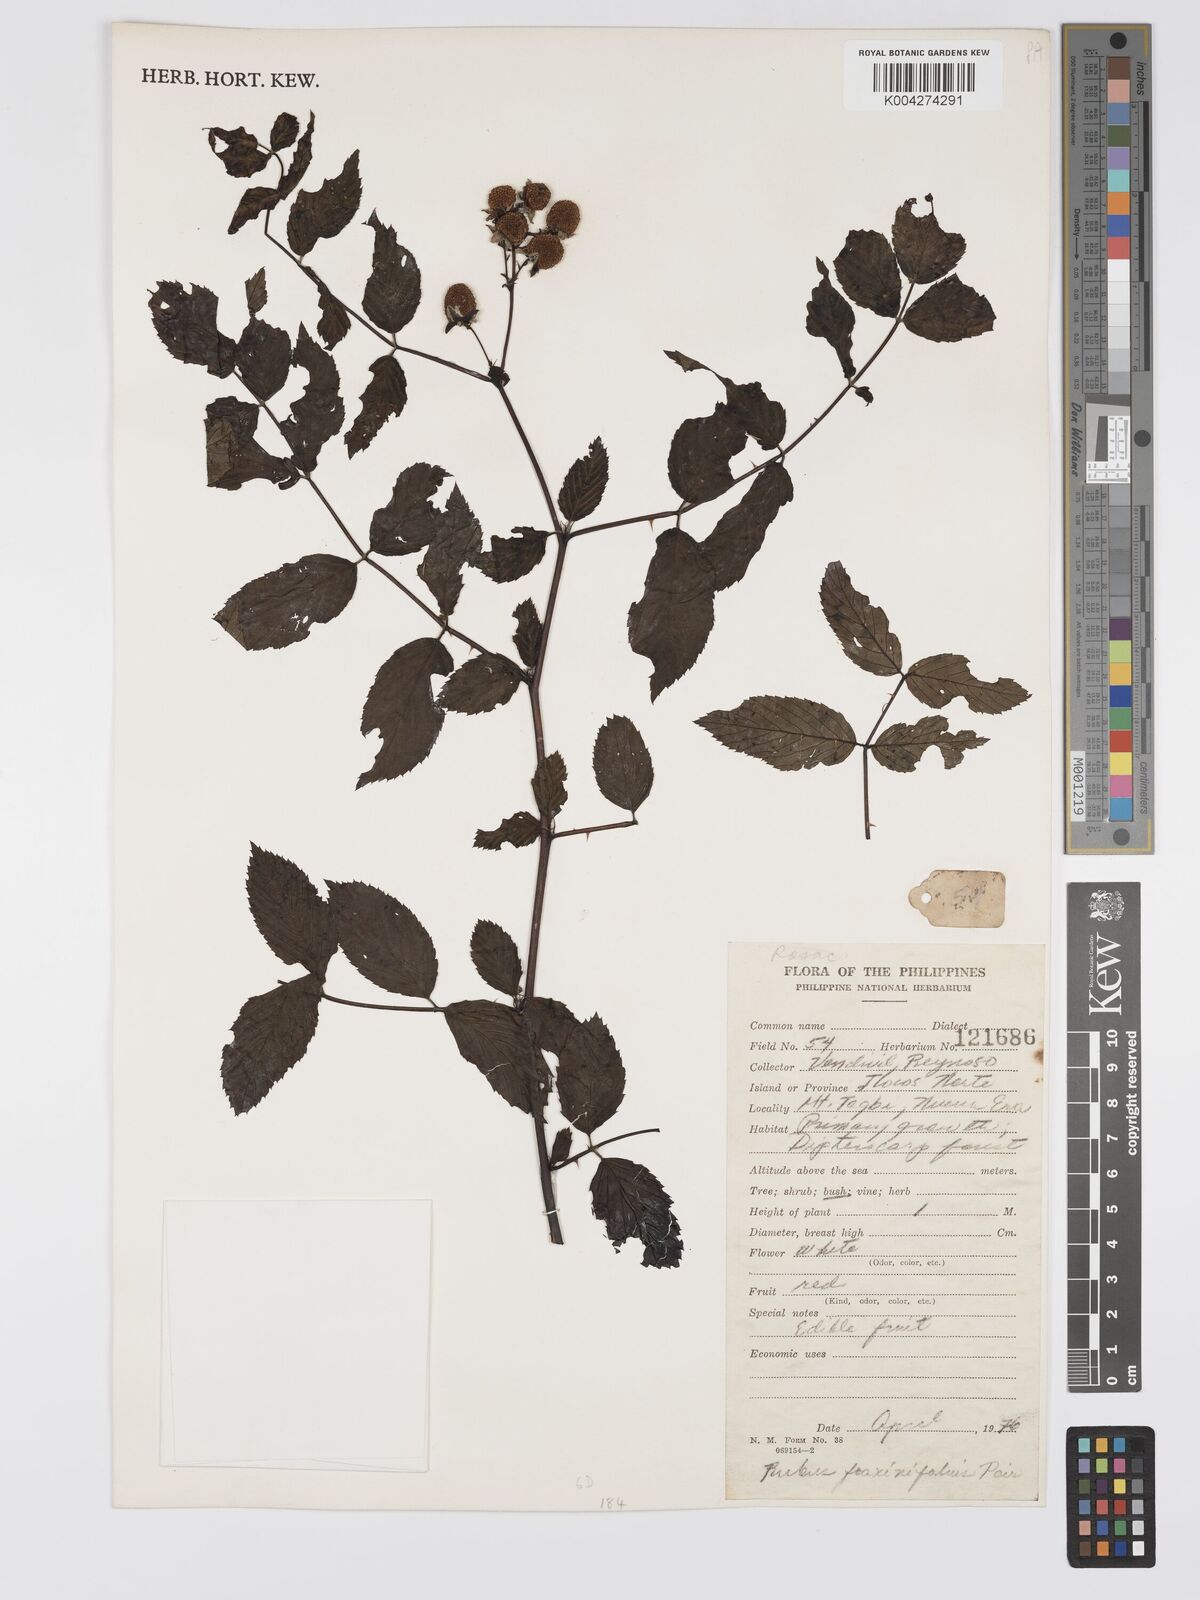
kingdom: Plantae
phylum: Tracheophyta
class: Magnoliopsida
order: Rosales
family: Rosaceae
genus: Rubus
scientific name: Rubus fraxinifolius
